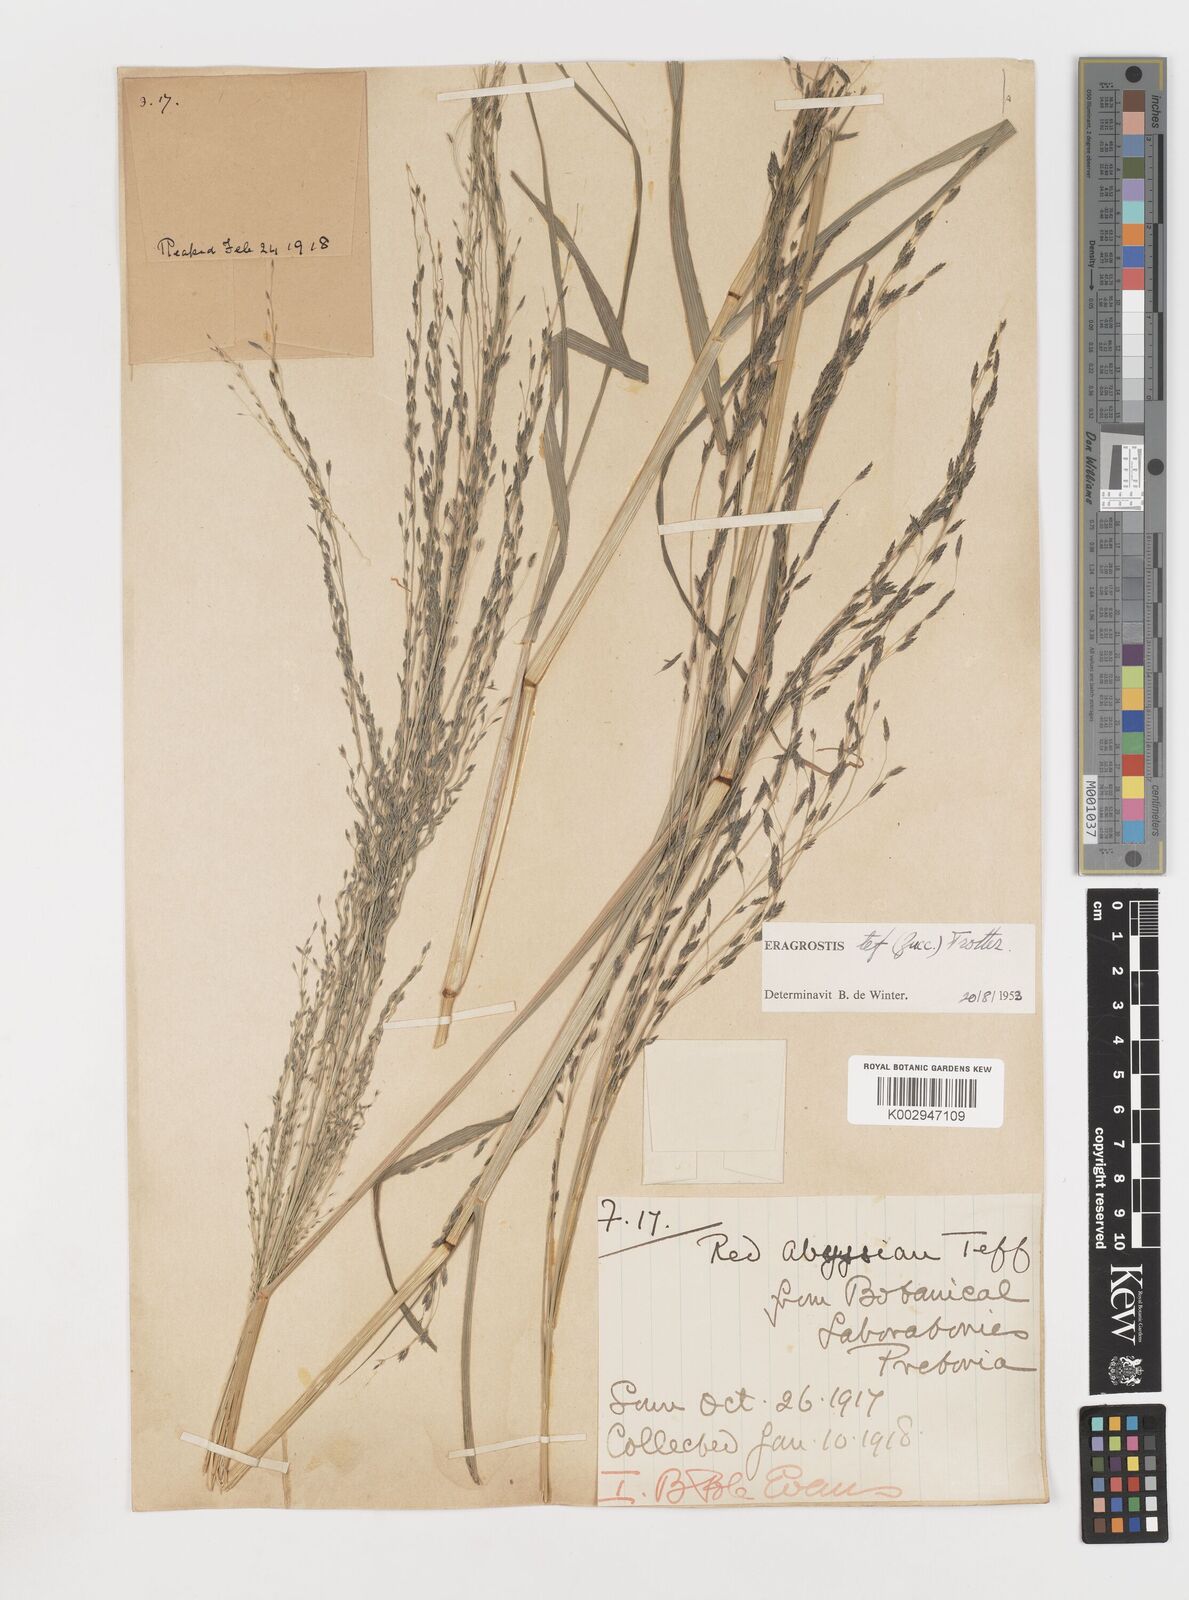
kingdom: Plantae
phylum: Tracheophyta
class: Liliopsida
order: Poales
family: Poaceae
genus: Eragrostis
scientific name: Eragrostis tef
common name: Teff
